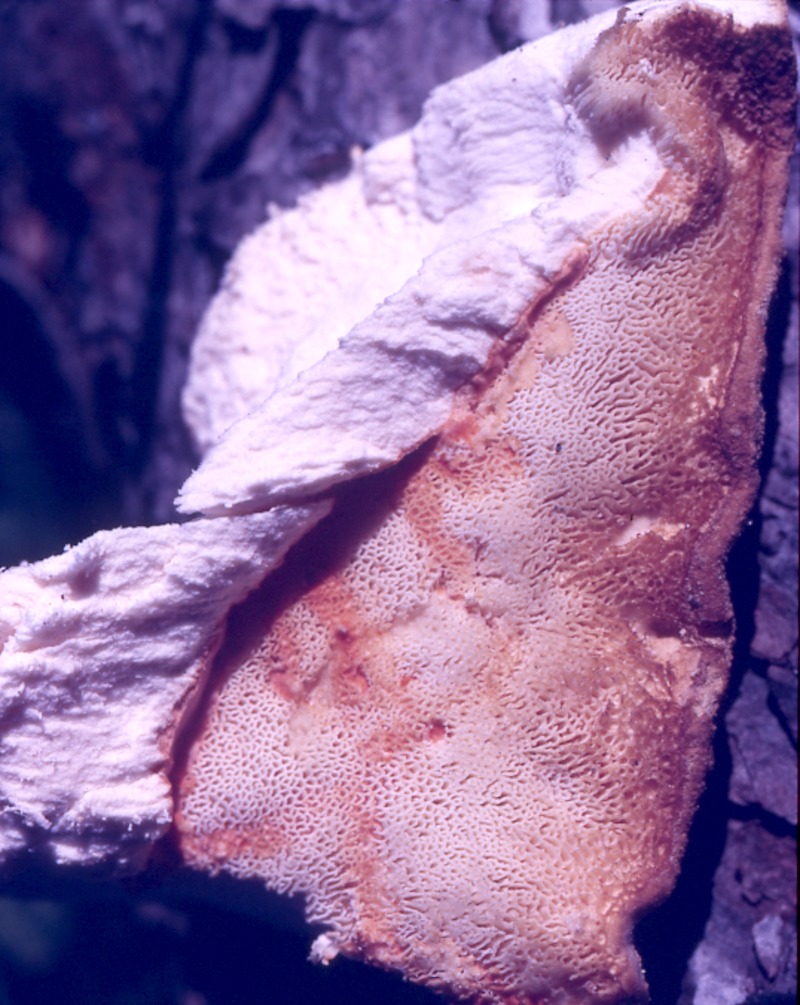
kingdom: Plantae
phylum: Tracheophyta
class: Magnoliopsida
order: Malpighiales
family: Salicaceae
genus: Salix
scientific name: Salix
